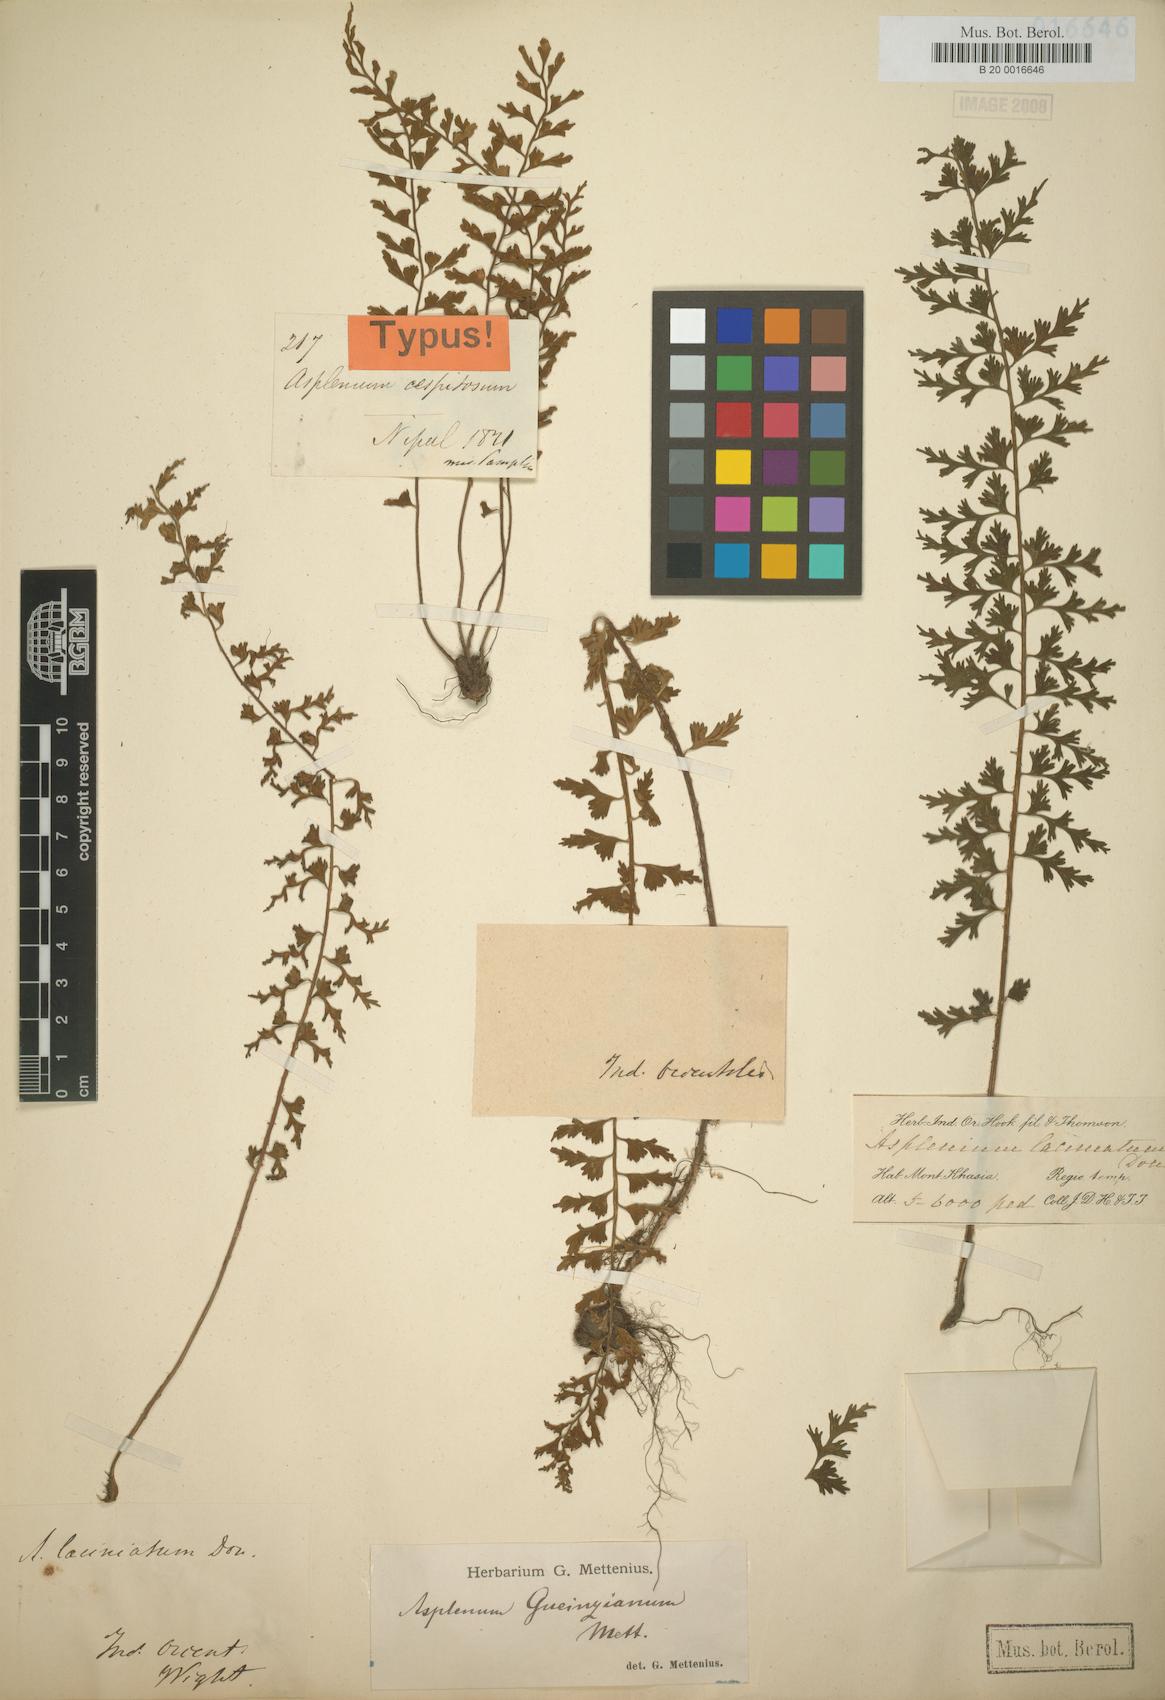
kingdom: Plantae
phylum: Tracheophyta
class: Polypodiopsida
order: Polypodiales
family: Aspleniaceae
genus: Asplenium
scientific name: Asplenium laciniatum
